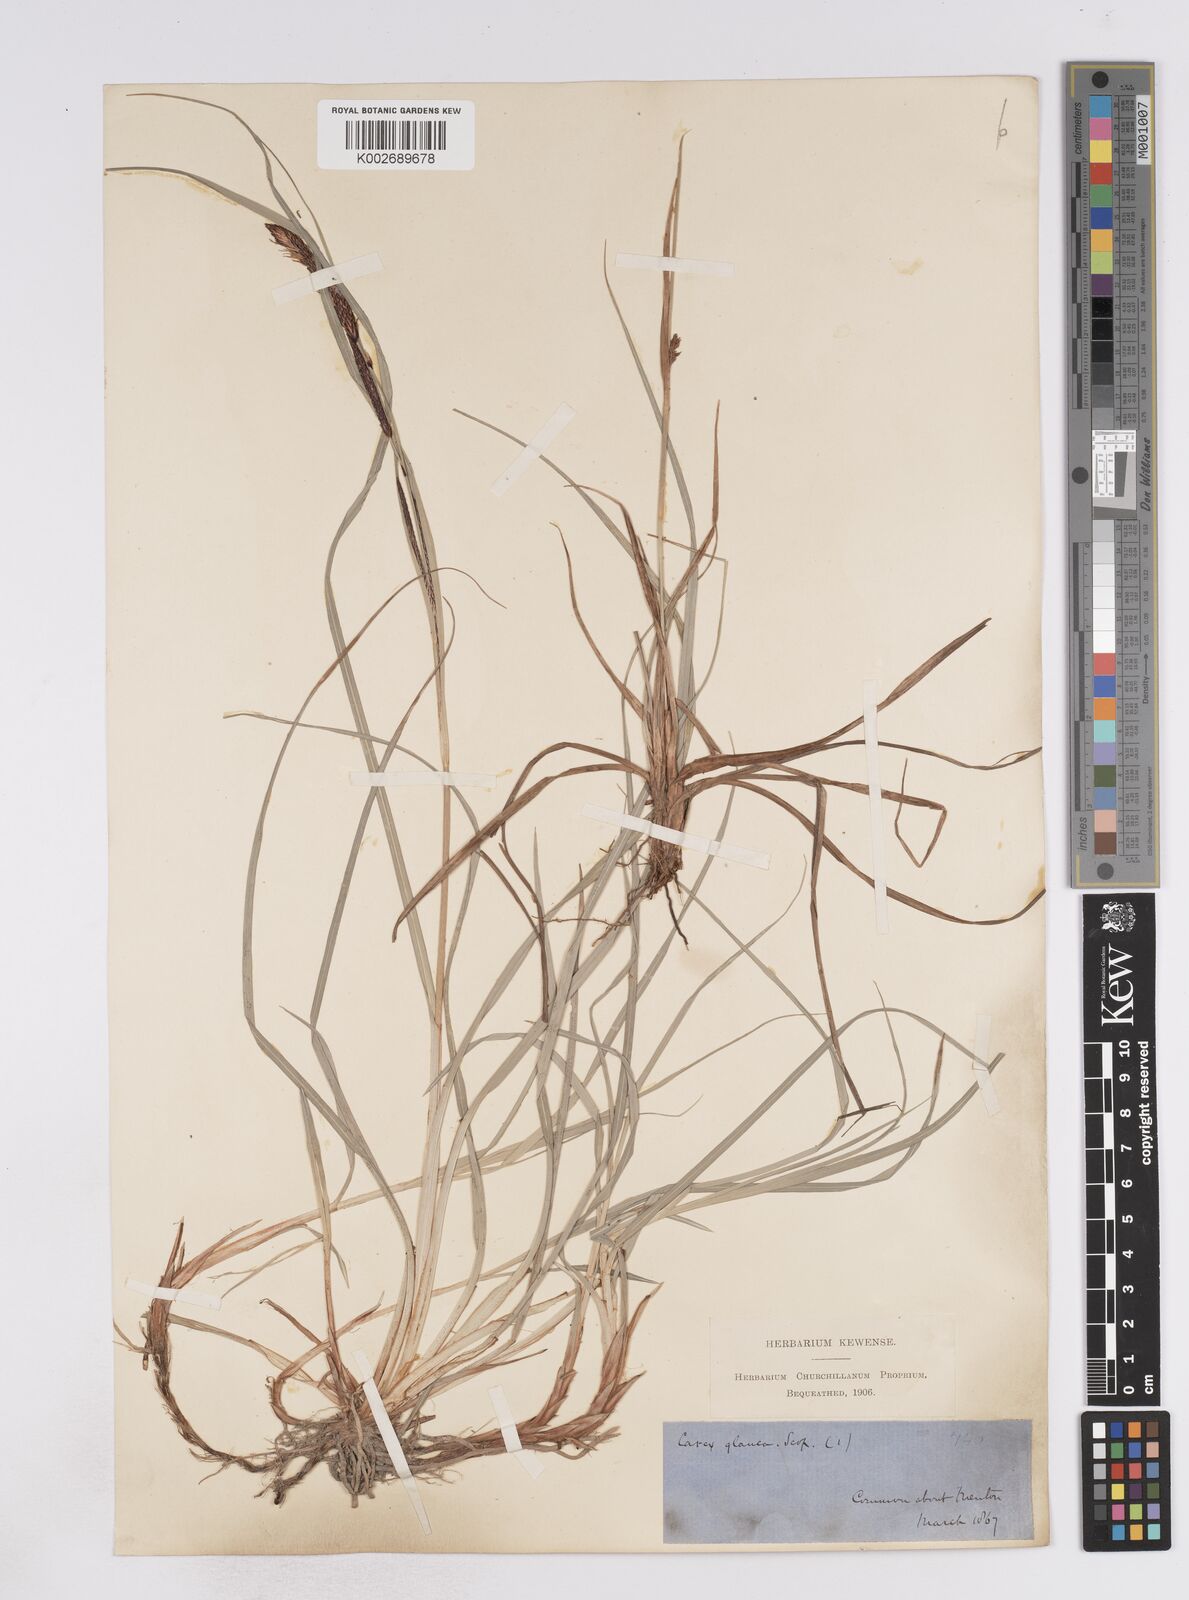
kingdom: Plantae
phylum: Tracheophyta
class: Liliopsida
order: Poales
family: Cyperaceae
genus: Carex
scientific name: Carex flacca
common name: Glaucous sedge
